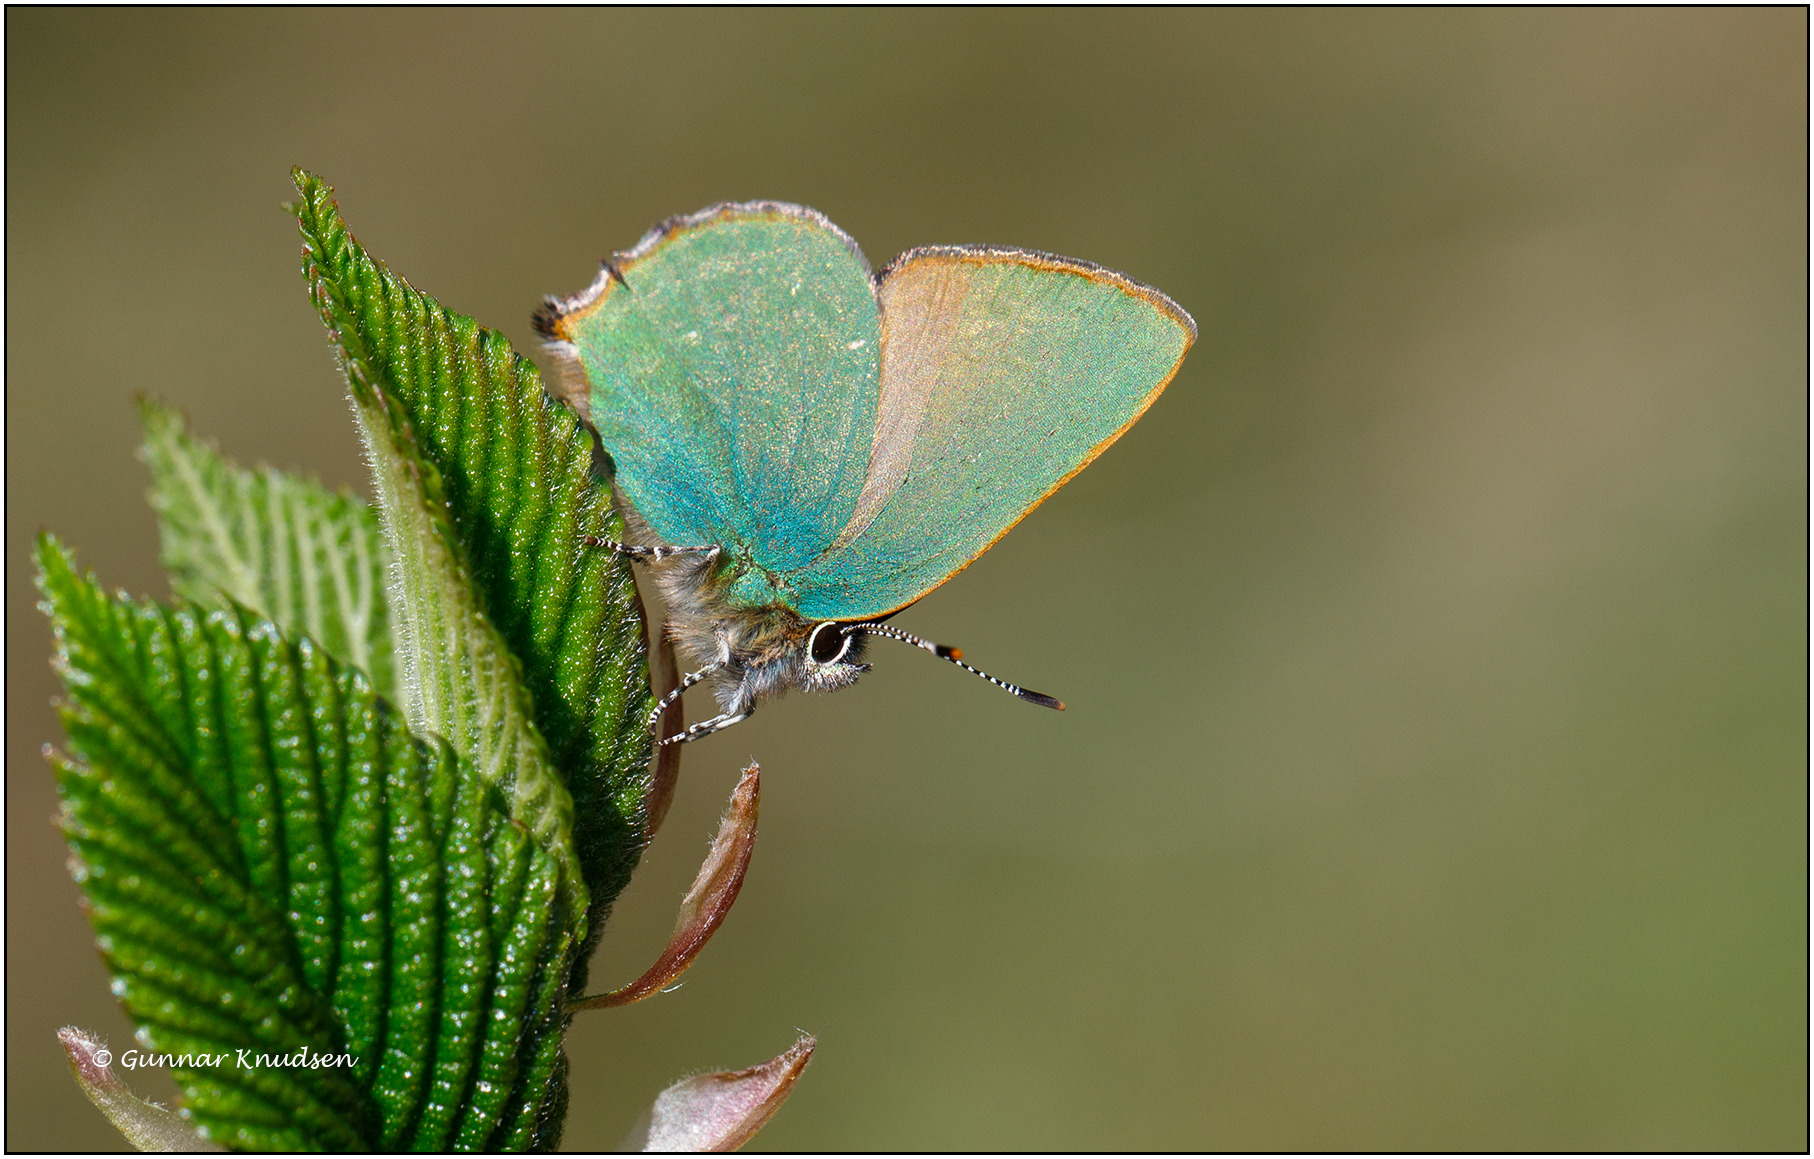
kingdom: Animalia
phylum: Arthropoda
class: Insecta
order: Lepidoptera
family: Lycaenidae
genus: Callophrys
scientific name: Callophrys rubi
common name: Grøn busksommerfugl
